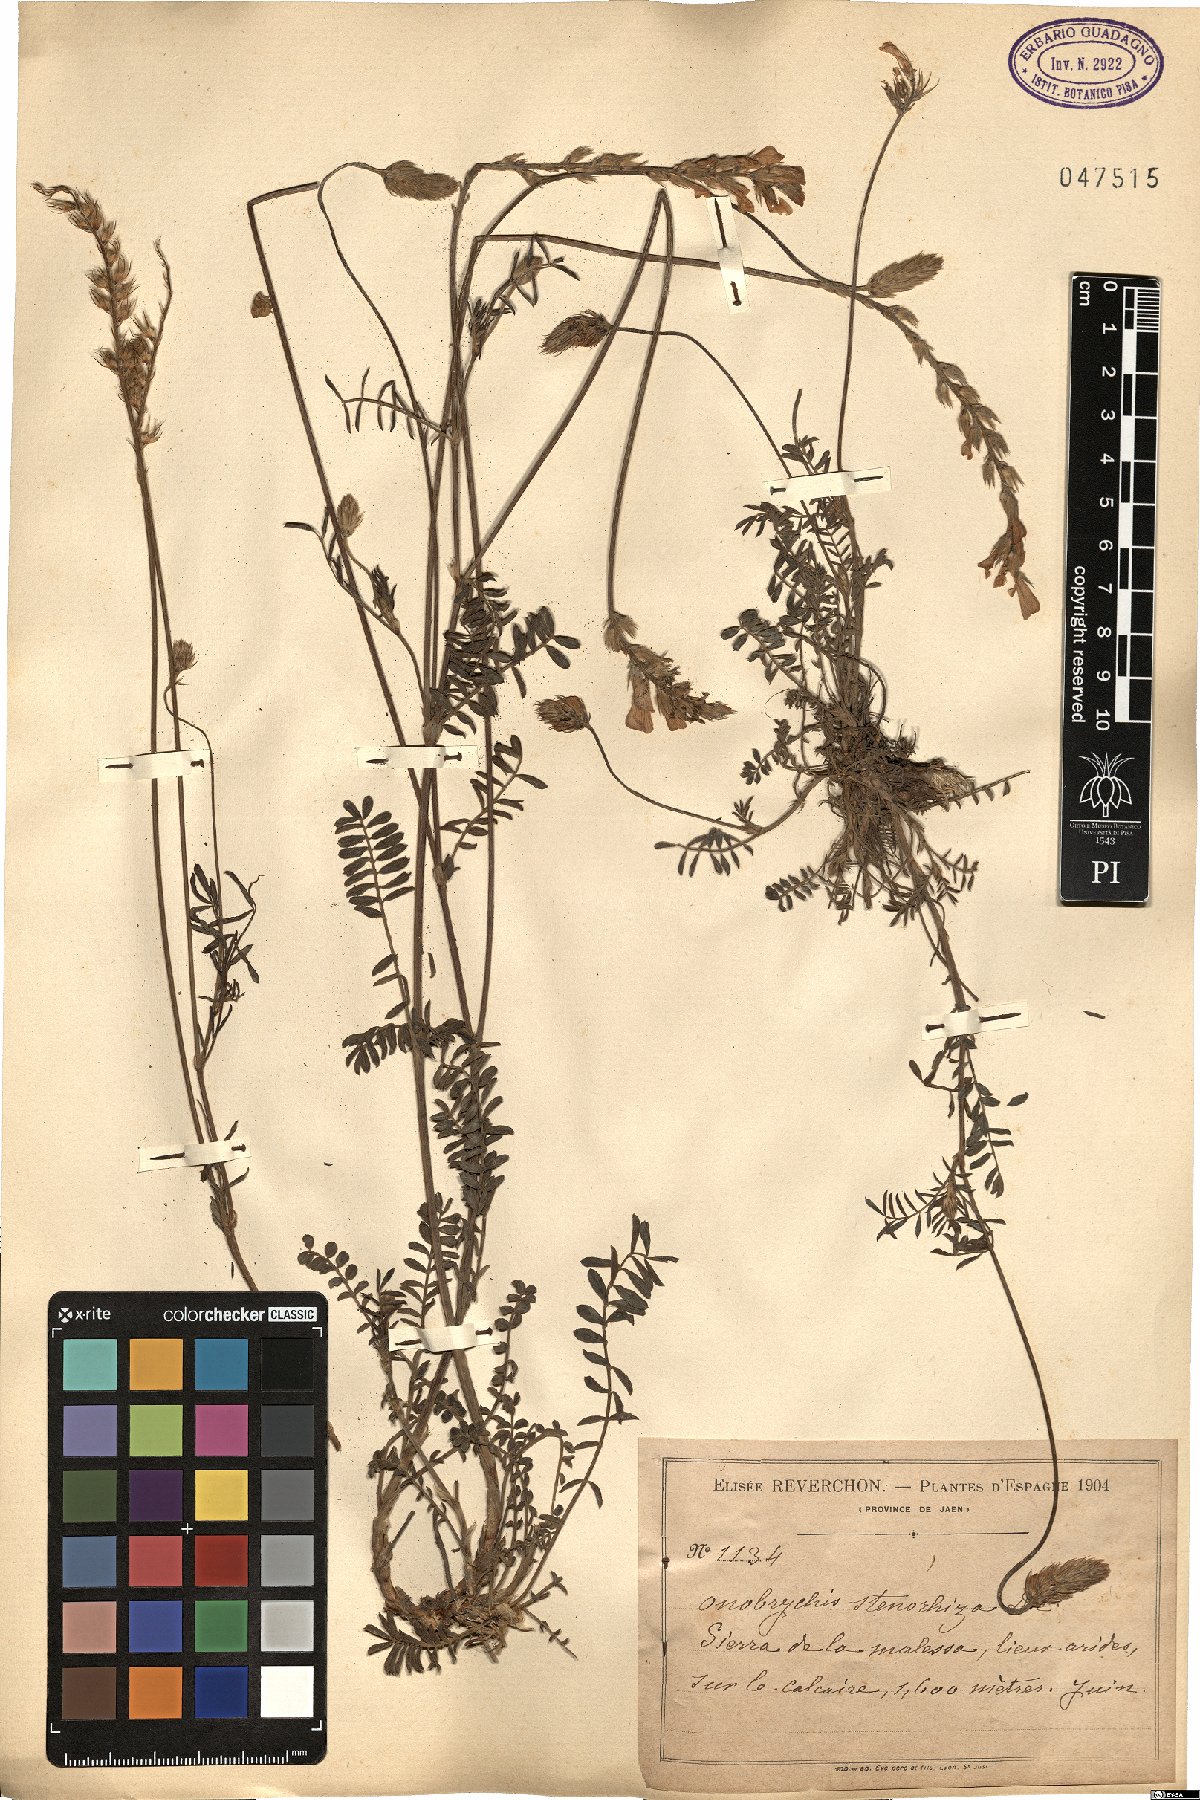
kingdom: Plantae
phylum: Tracheophyta
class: Magnoliopsida
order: Fabales
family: Fabaceae
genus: Onobrychis
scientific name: Onobrychis stenorhiza
